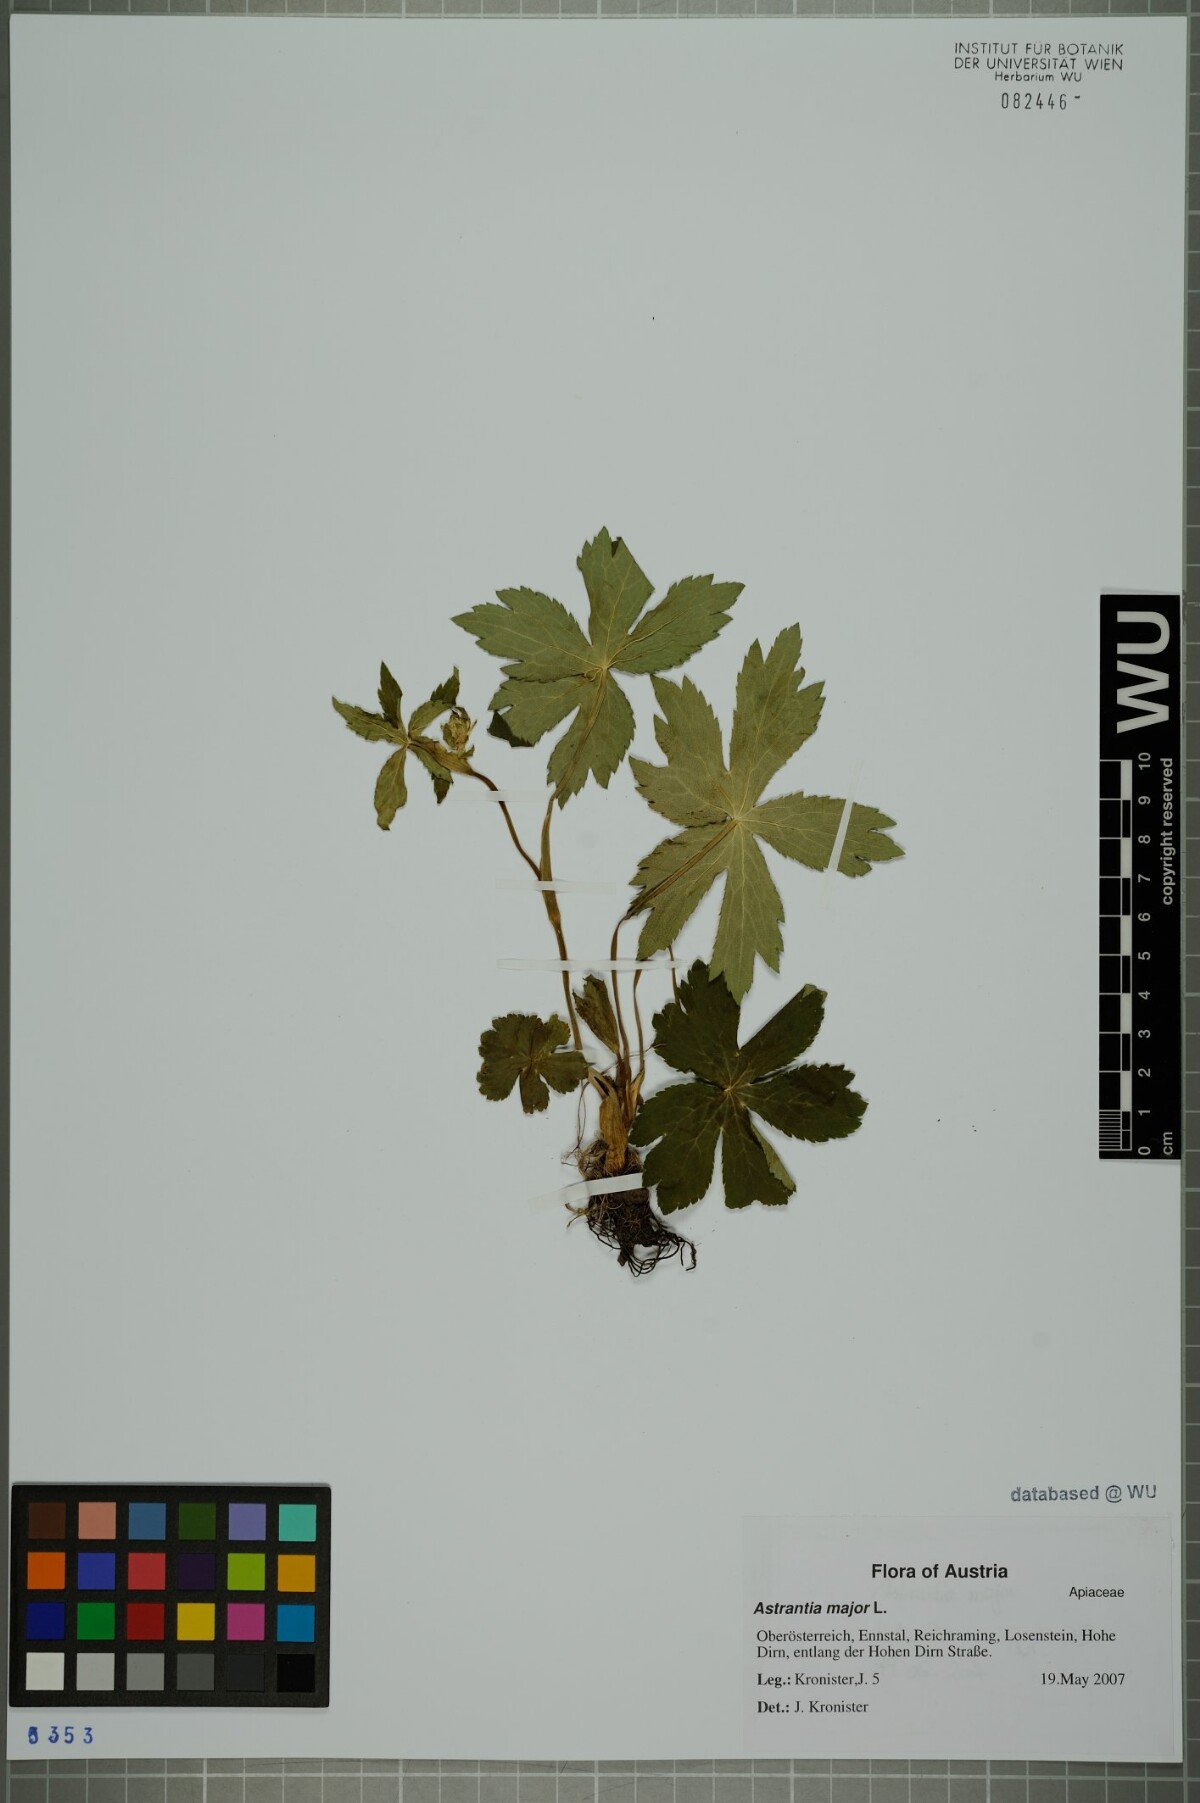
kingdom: Plantae
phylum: Tracheophyta
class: Magnoliopsida
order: Apiales
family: Apiaceae
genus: Astrantia
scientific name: Astrantia major
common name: Greater masterwort
